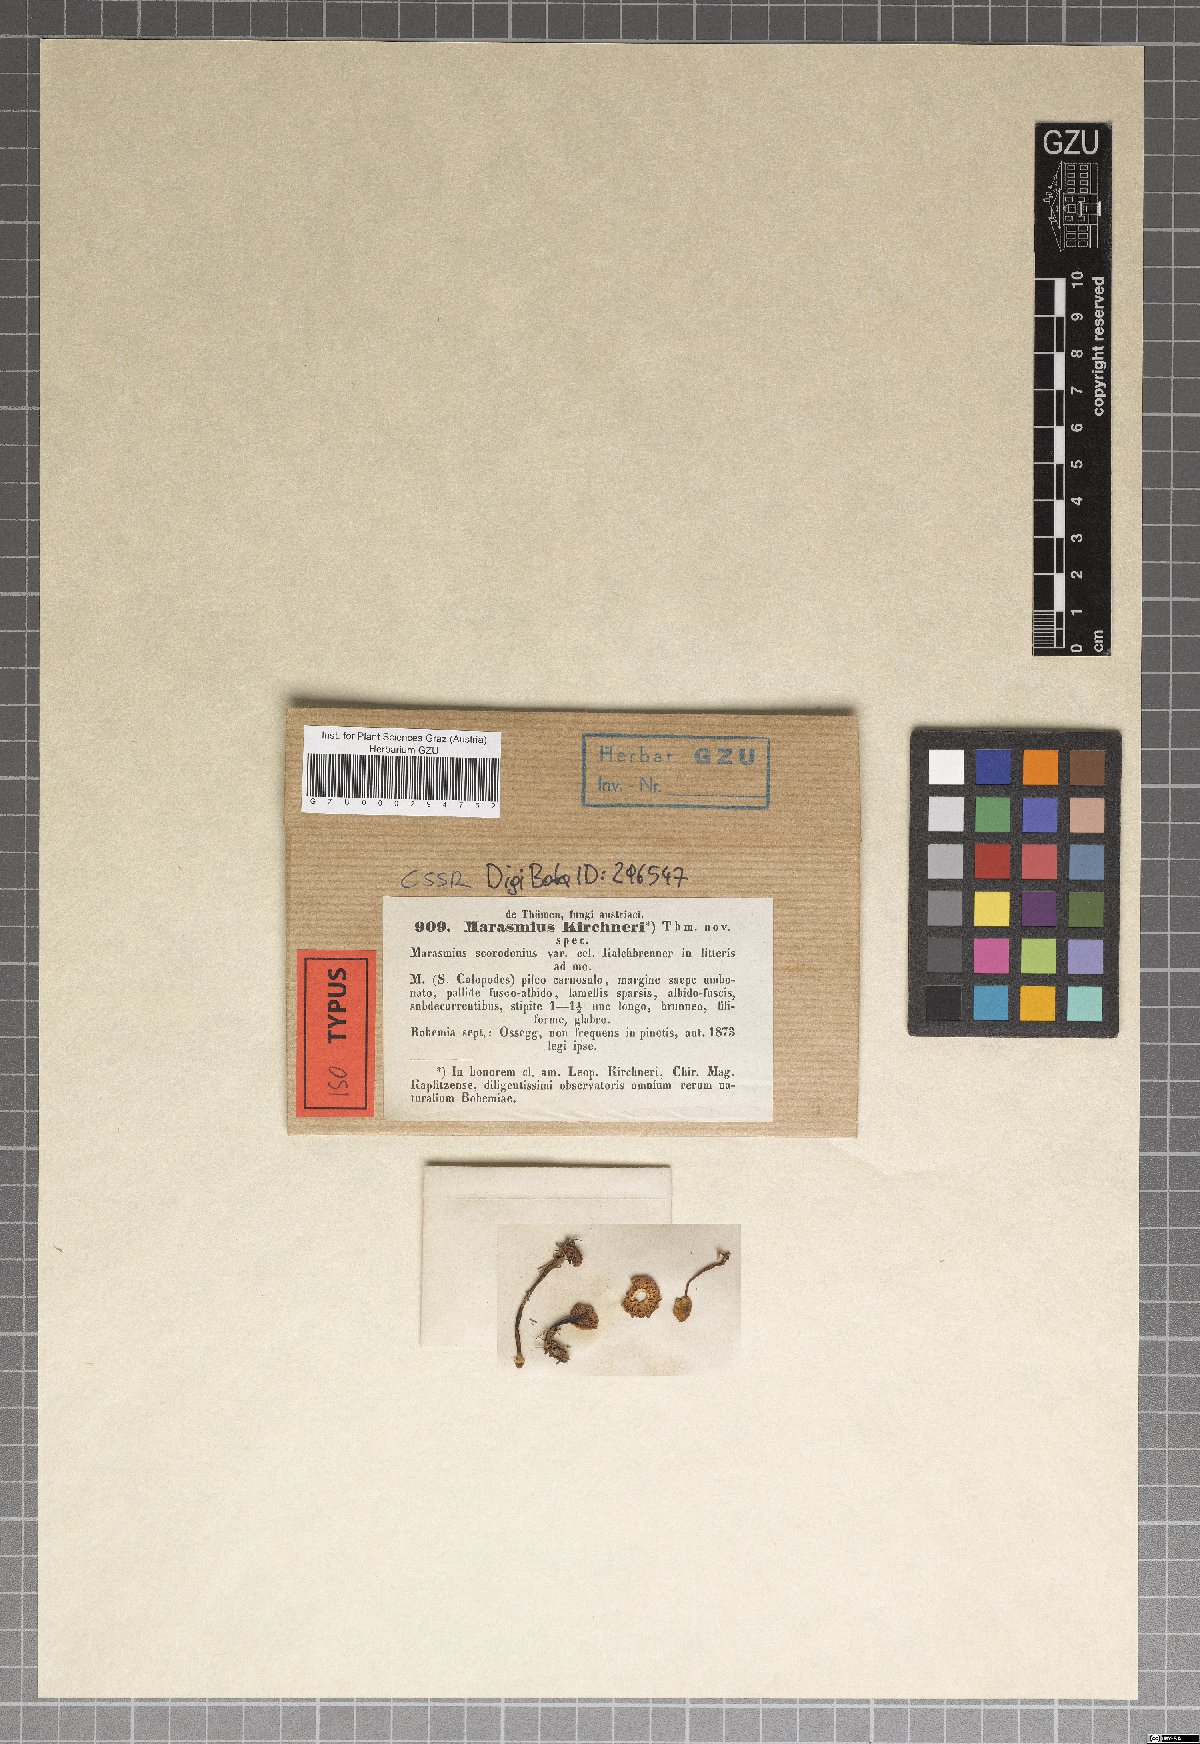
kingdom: Fungi
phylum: Basidiomycota
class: Agaricomycetes
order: Agaricales
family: Tricholomataceae
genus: Collybia
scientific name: Collybia kirchneri
